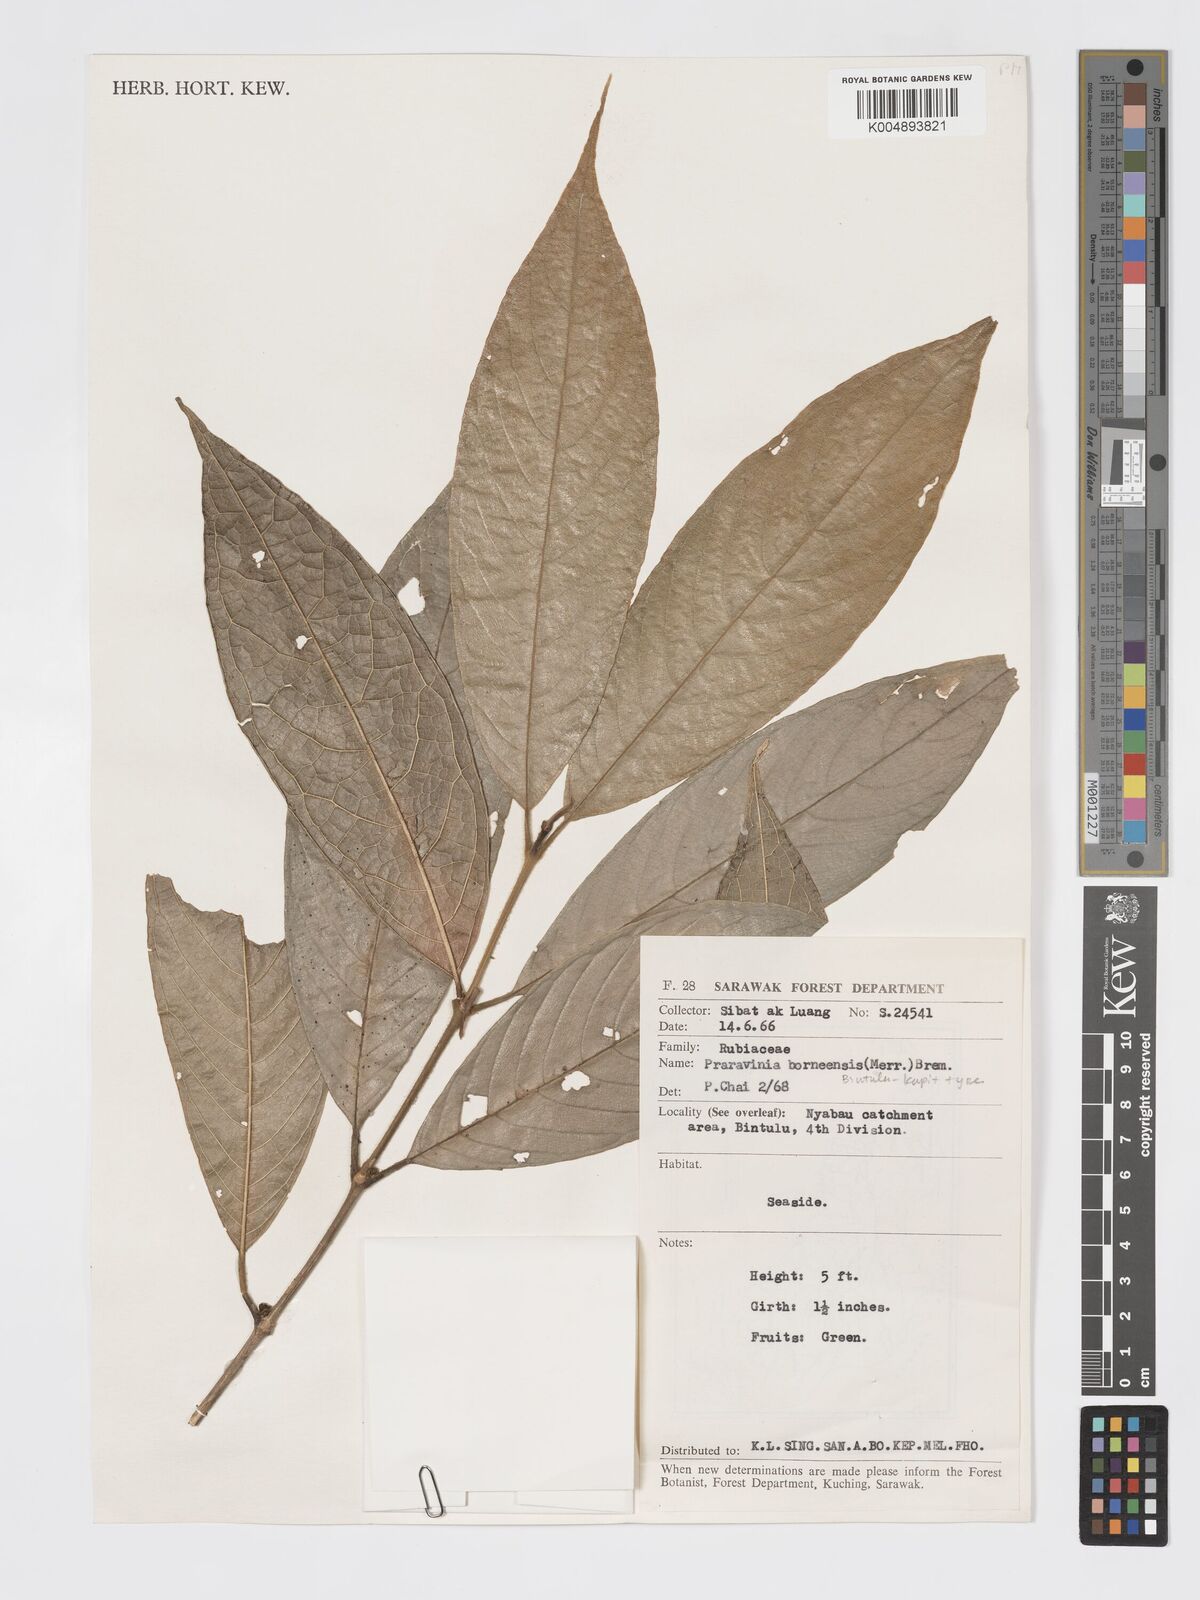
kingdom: Plantae
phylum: Tracheophyta
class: Magnoliopsida
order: Gentianales
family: Rubiaceae
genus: Praravinia
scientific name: Praravinia borneensis
